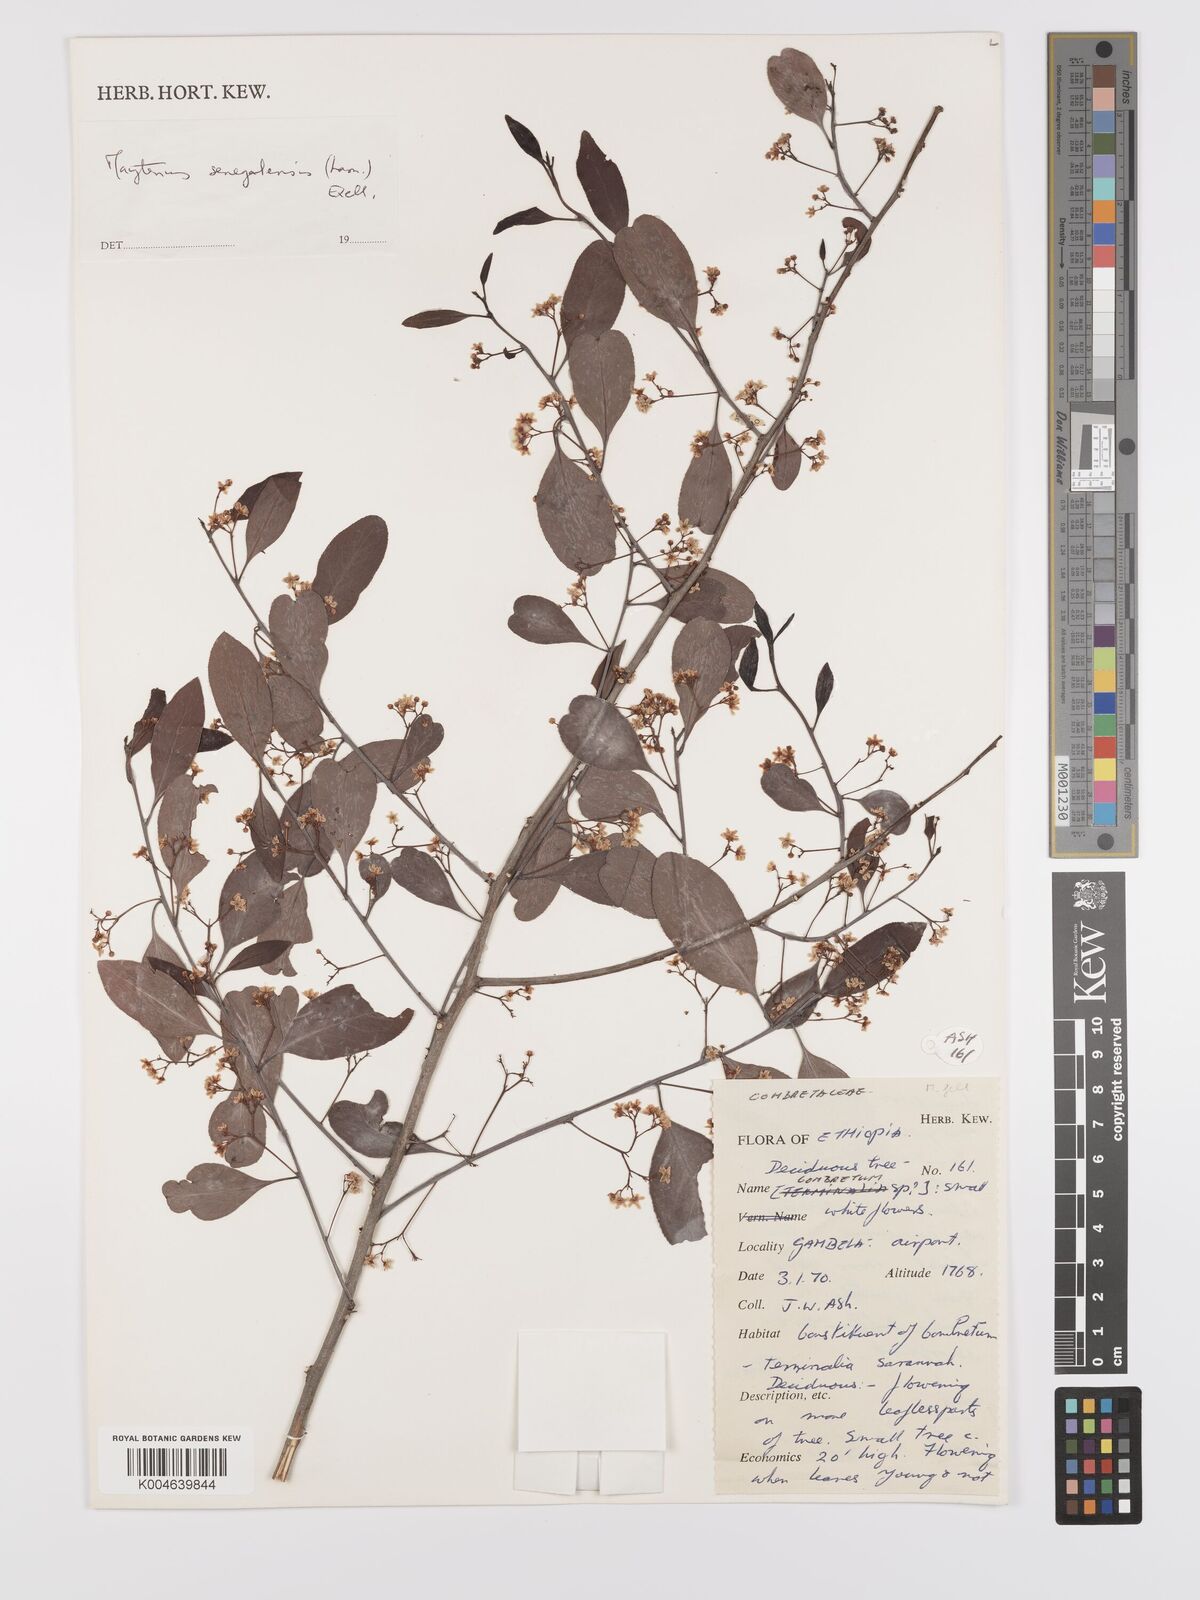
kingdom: Plantae
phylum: Tracheophyta
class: Magnoliopsida
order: Celastrales
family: Celastraceae
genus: Gymnosporia
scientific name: Gymnosporia senegalensis
